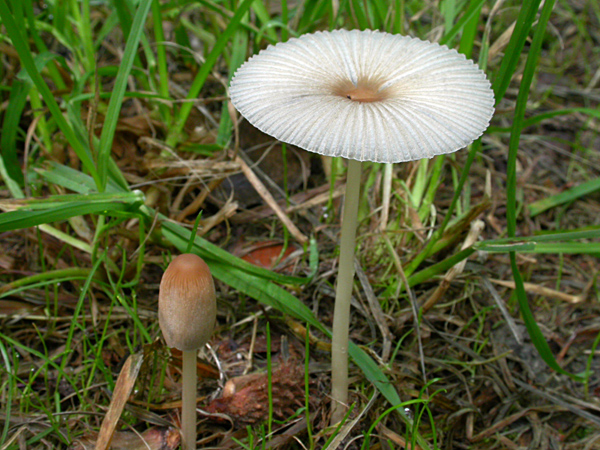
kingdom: Fungi
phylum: Basidiomycota
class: Agaricomycetes
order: Agaricales
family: Psathyrellaceae
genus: Parasola
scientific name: Parasola plicatilis
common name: plæne-hjulhat
